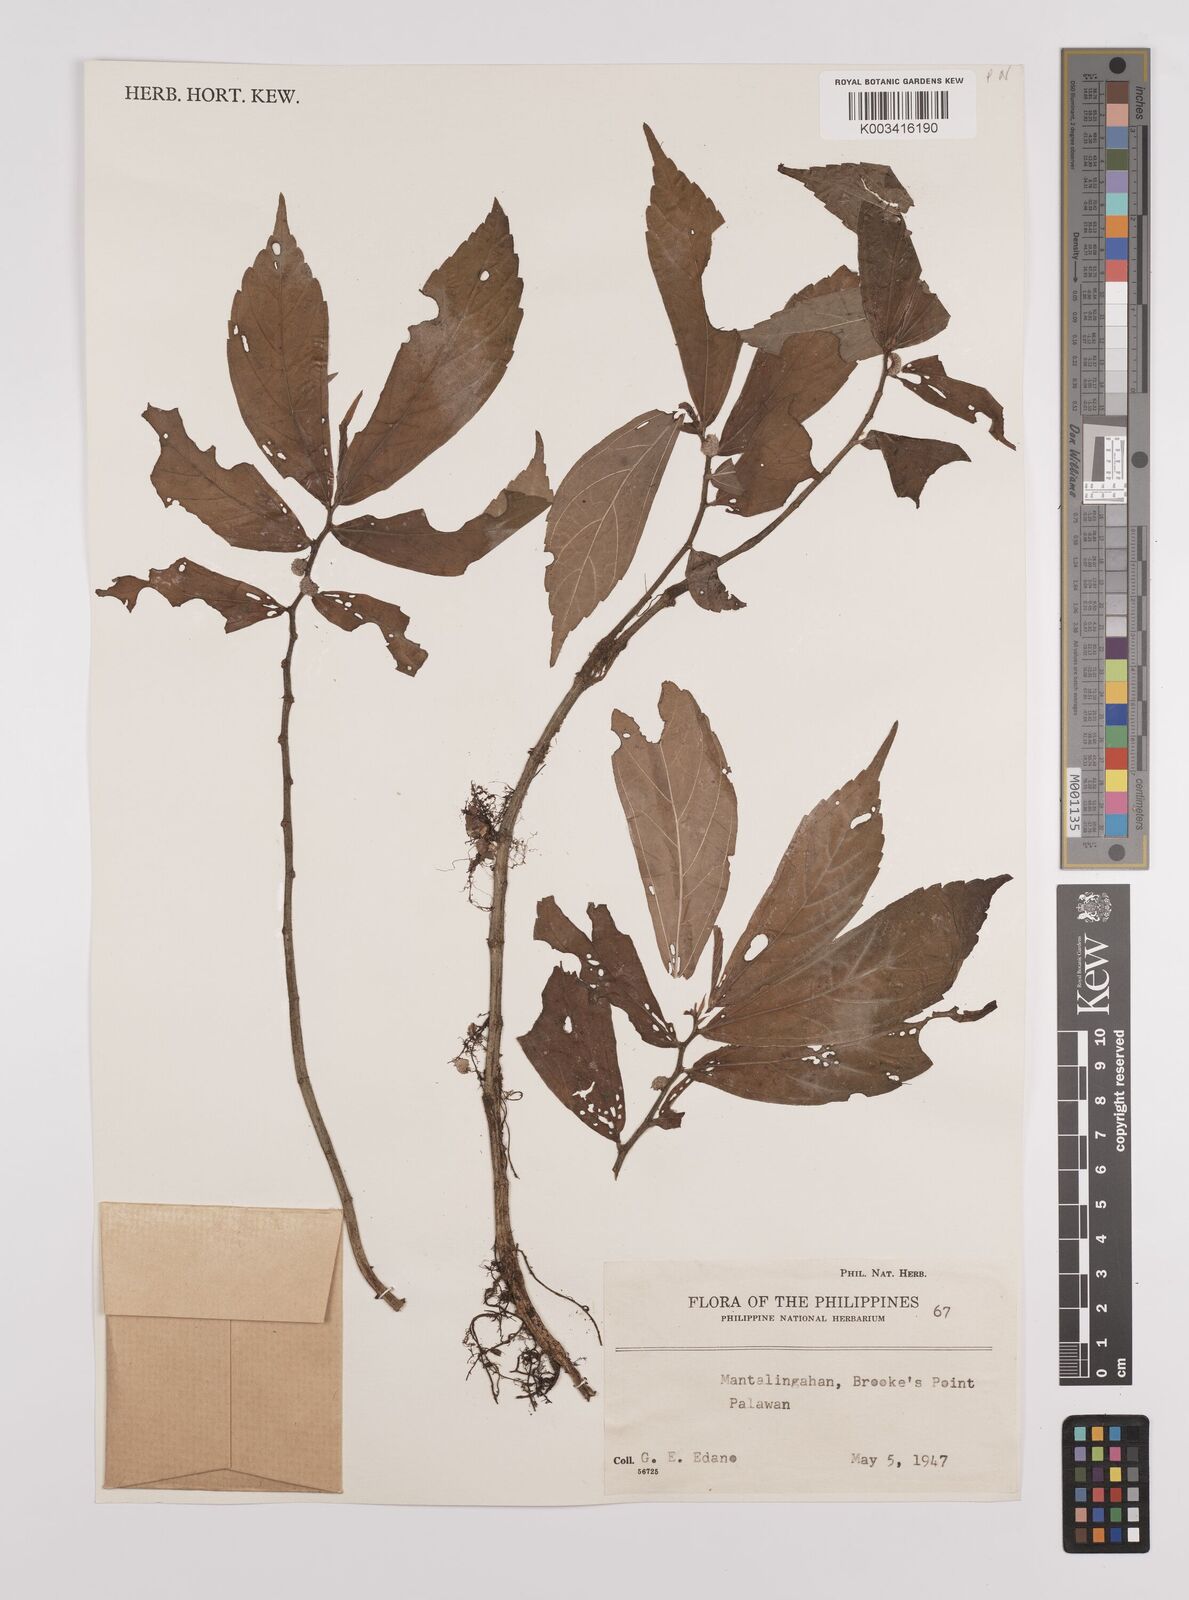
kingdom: Plantae
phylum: Tracheophyta
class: Magnoliopsida
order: Rosales
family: Urticaceae
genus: Elatostema
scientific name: Elatostema
